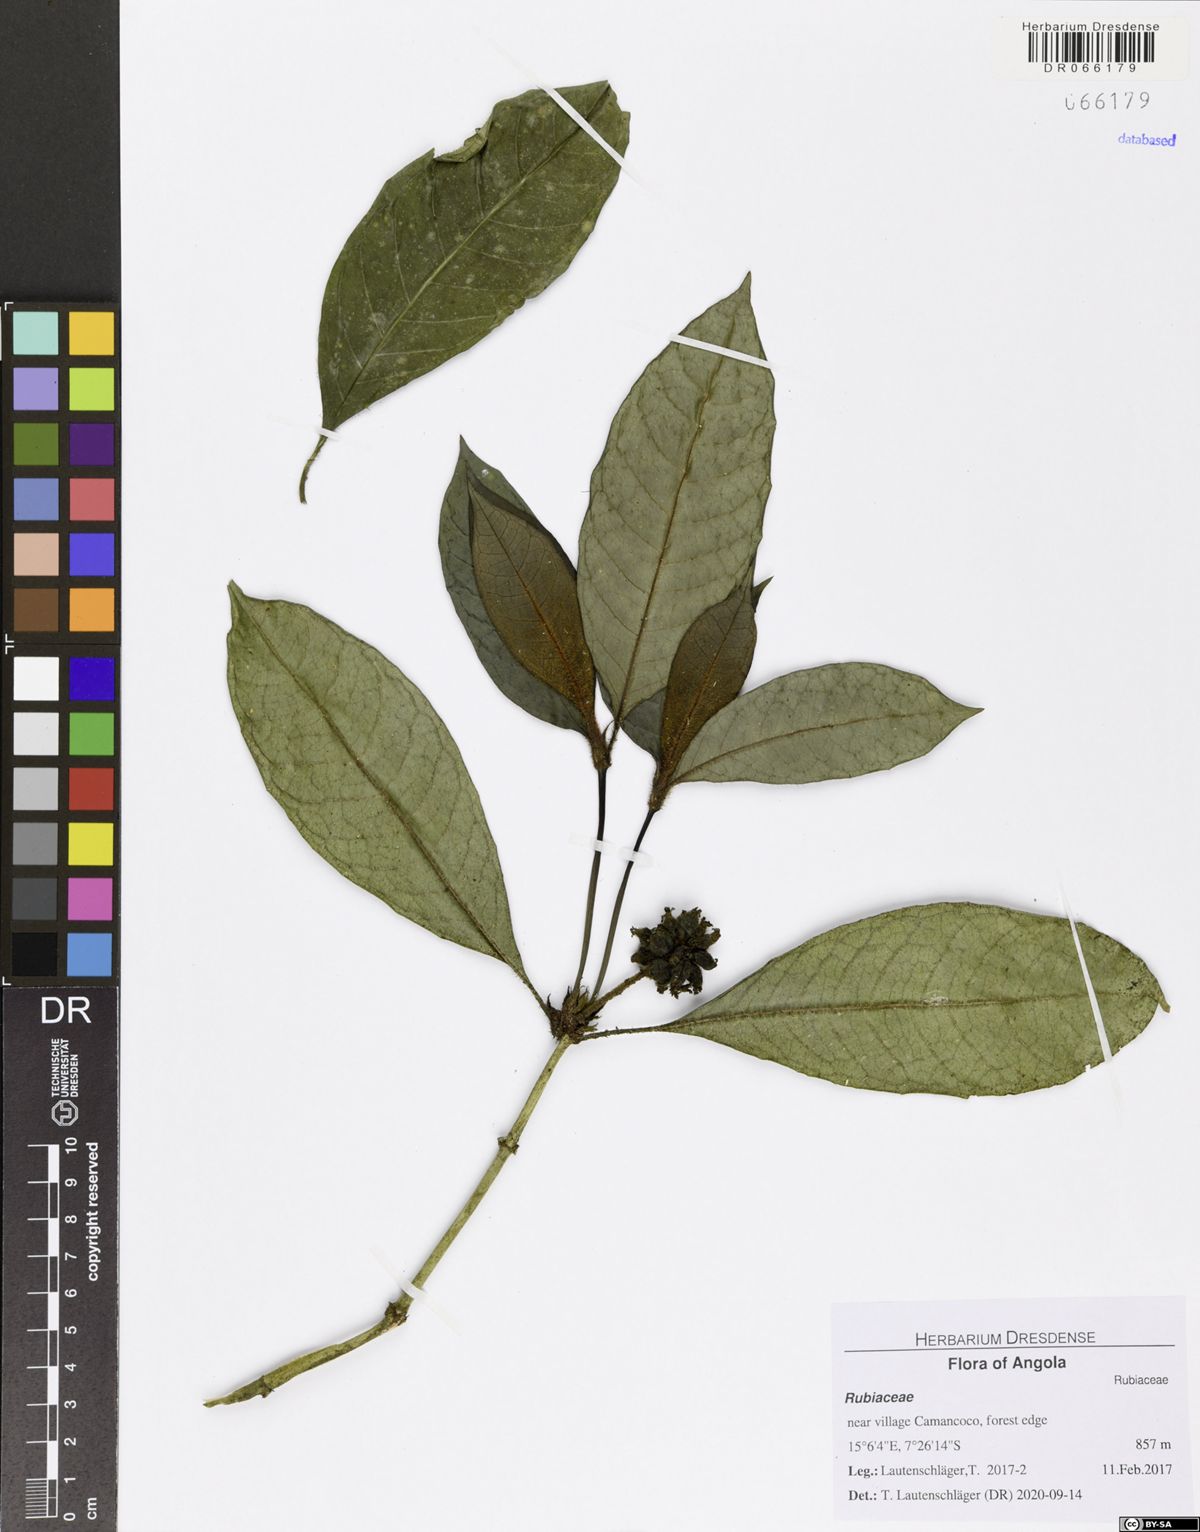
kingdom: Plantae
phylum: Tracheophyta
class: Magnoliopsida
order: Gentianales
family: Rubiaceae
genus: Psychotria
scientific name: Psychotria globiceps
